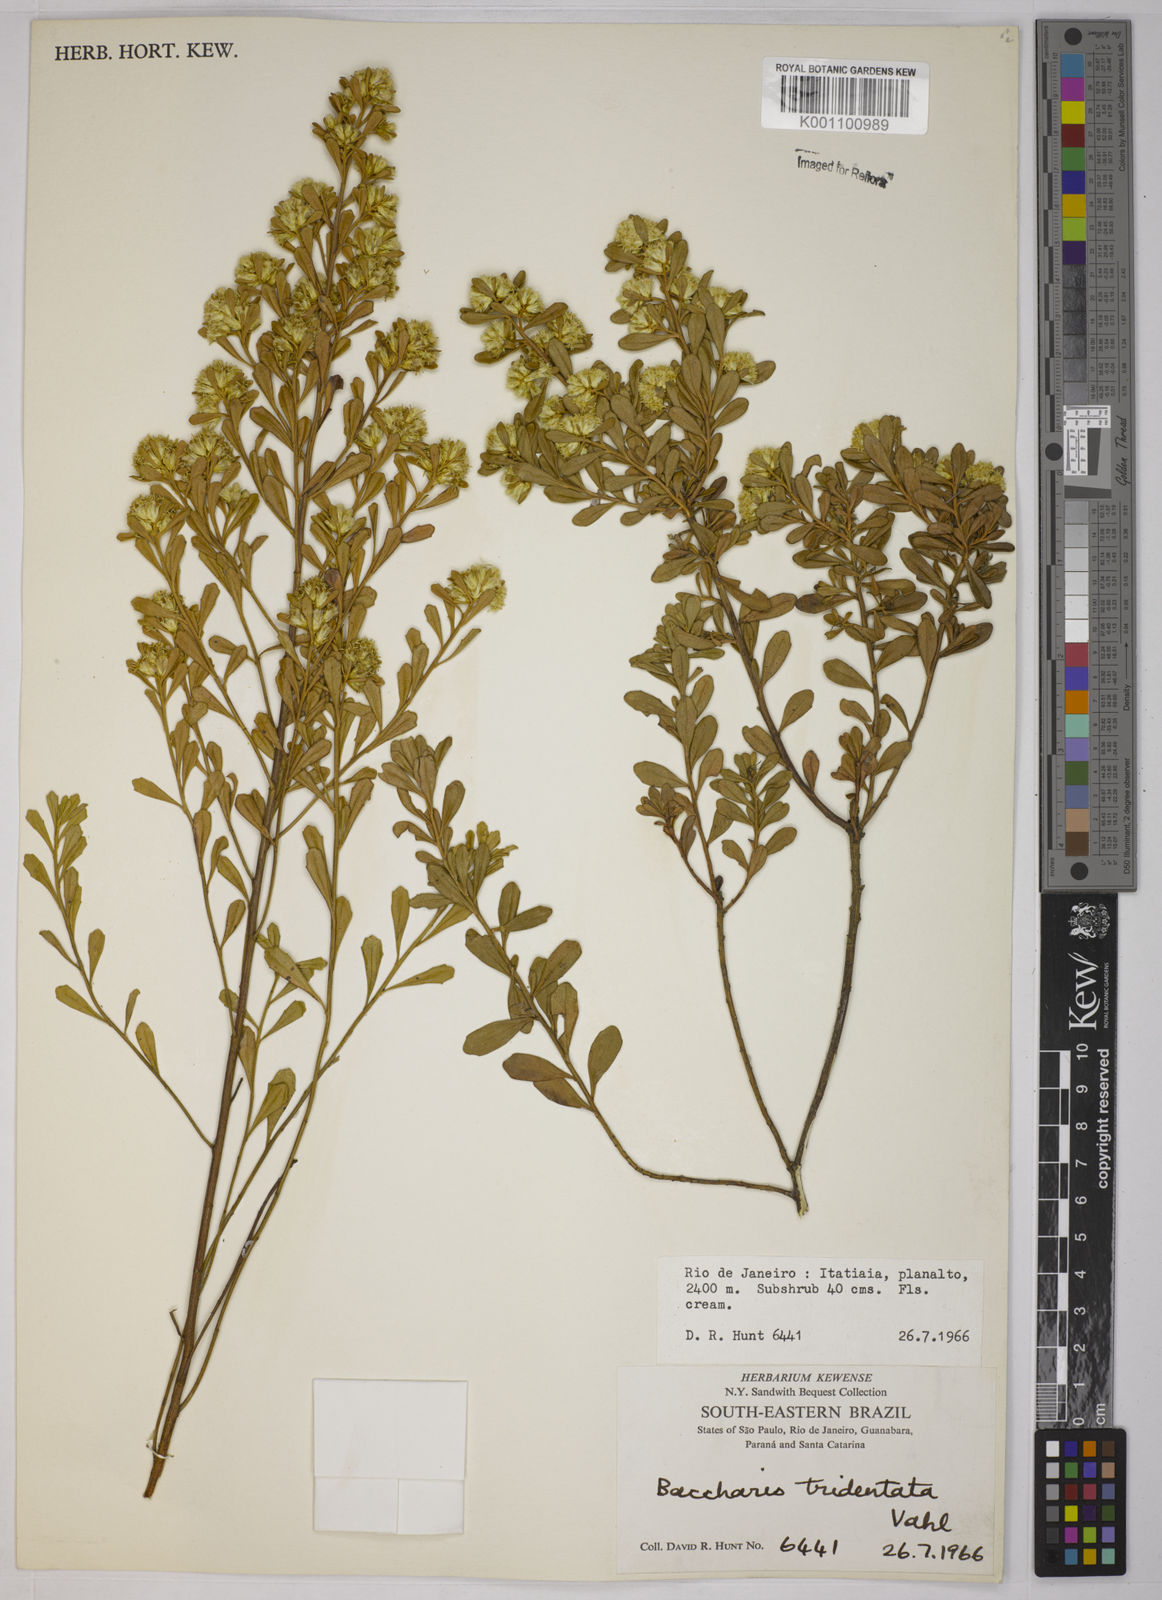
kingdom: Plantae
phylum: Tracheophyta
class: Magnoliopsida
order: Asterales
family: Asteraceae
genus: Baccharis
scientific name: Baccharis tridentata
